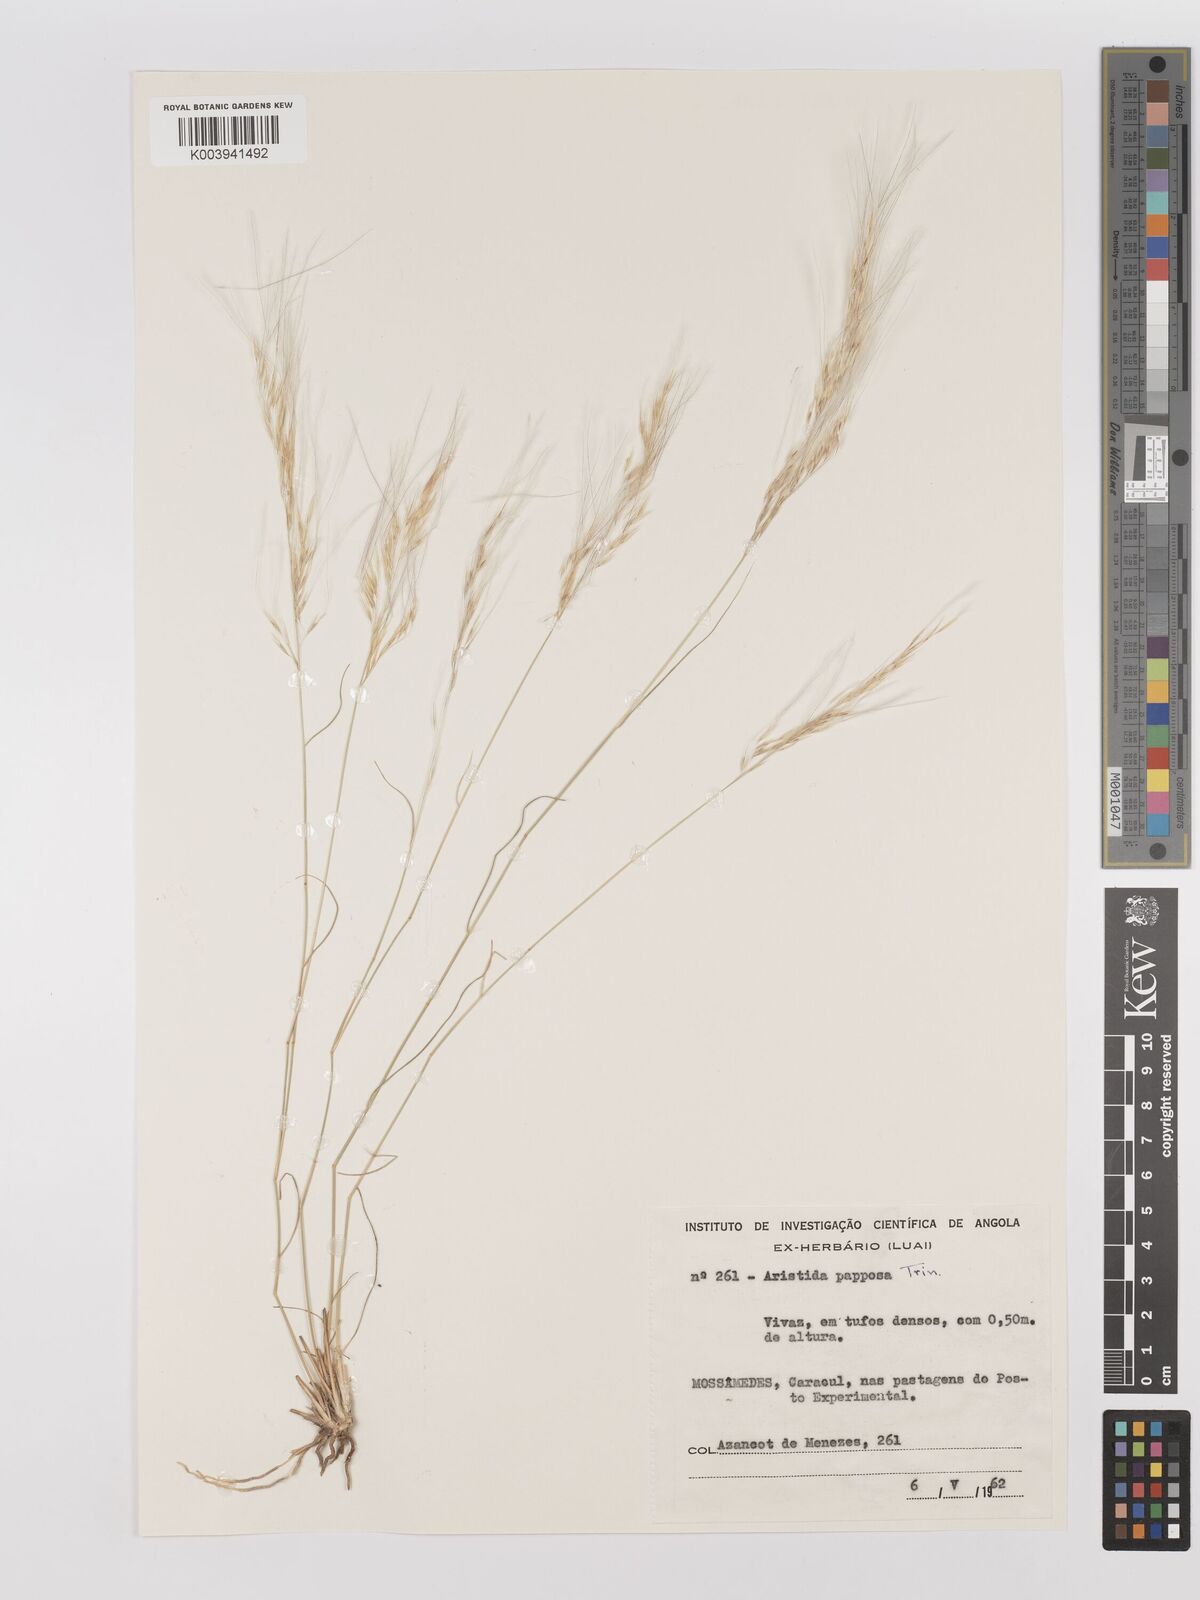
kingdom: Plantae
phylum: Tracheophyta
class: Liliopsida
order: Poales
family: Poaceae
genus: Stipagrostis
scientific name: Stipagrostis uniplumis
